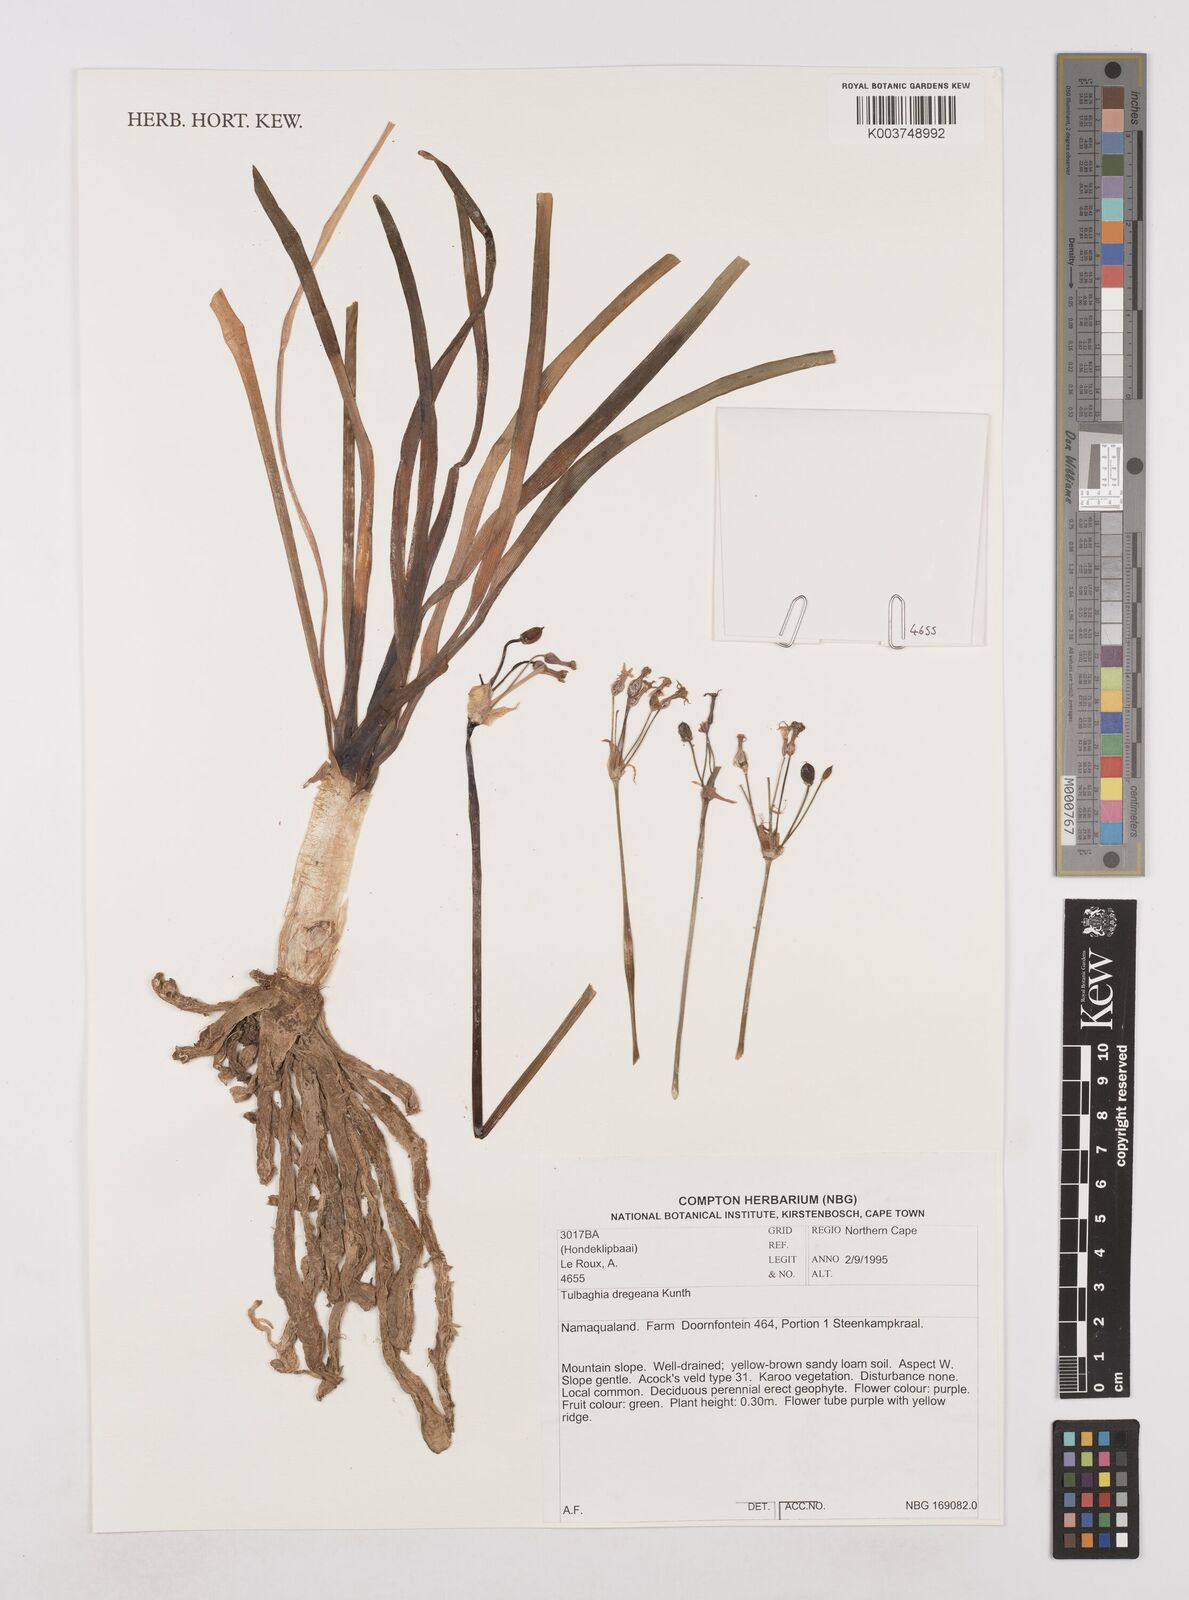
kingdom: Plantae
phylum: Tracheophyta
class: Liliopsida
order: Asparagales
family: Amaryllidaceae
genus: Tulbaghia
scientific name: Tulbaghia dregeana
